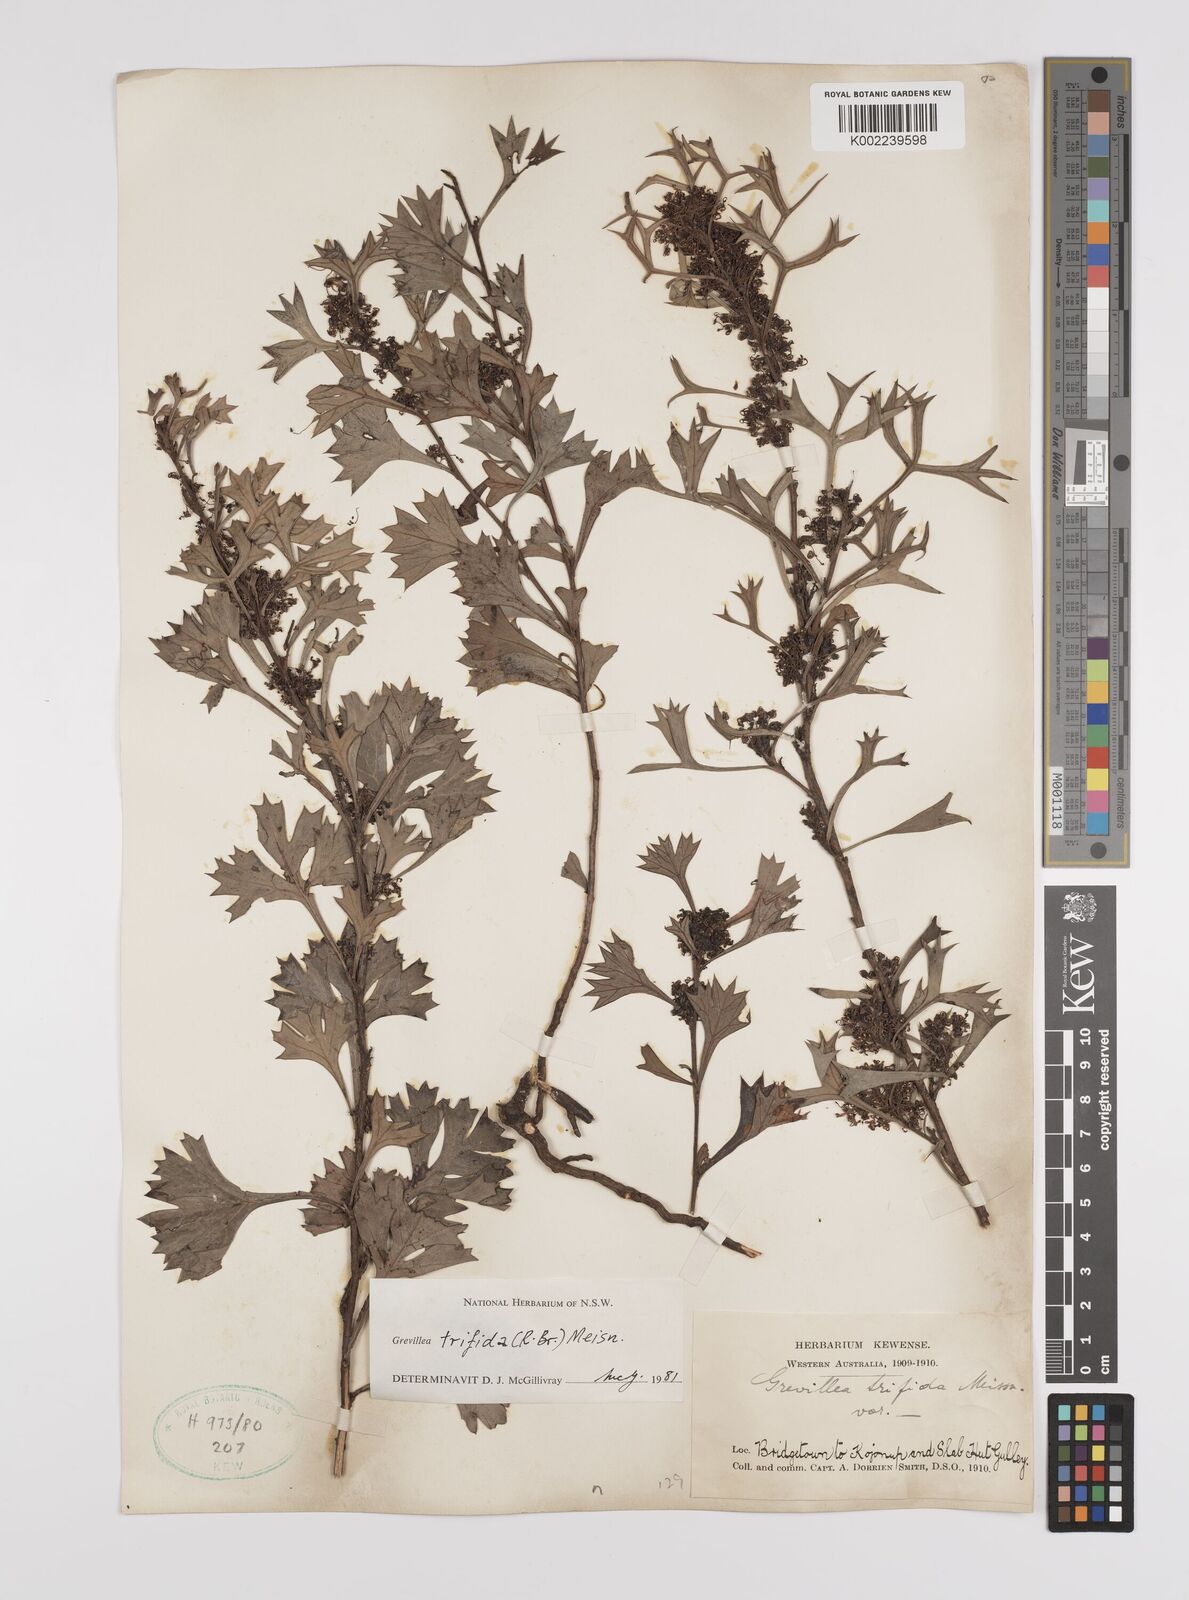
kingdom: Plantae
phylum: Tracheophyta
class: Magnoliopsida
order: Proteales
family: Proteaceae
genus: Grevillea
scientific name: Grevillea trifida
